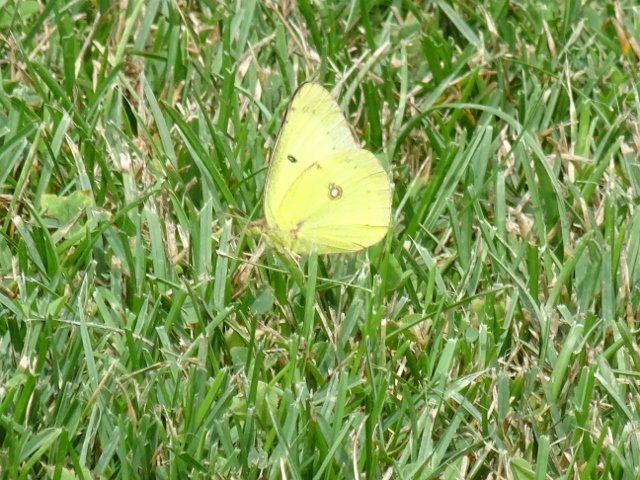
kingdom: Animalia
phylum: Arthropoda
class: Insecta
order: Lepidoptera
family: Pieridae
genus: Colias
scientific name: Colias philodice
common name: Clouded Sulphur
